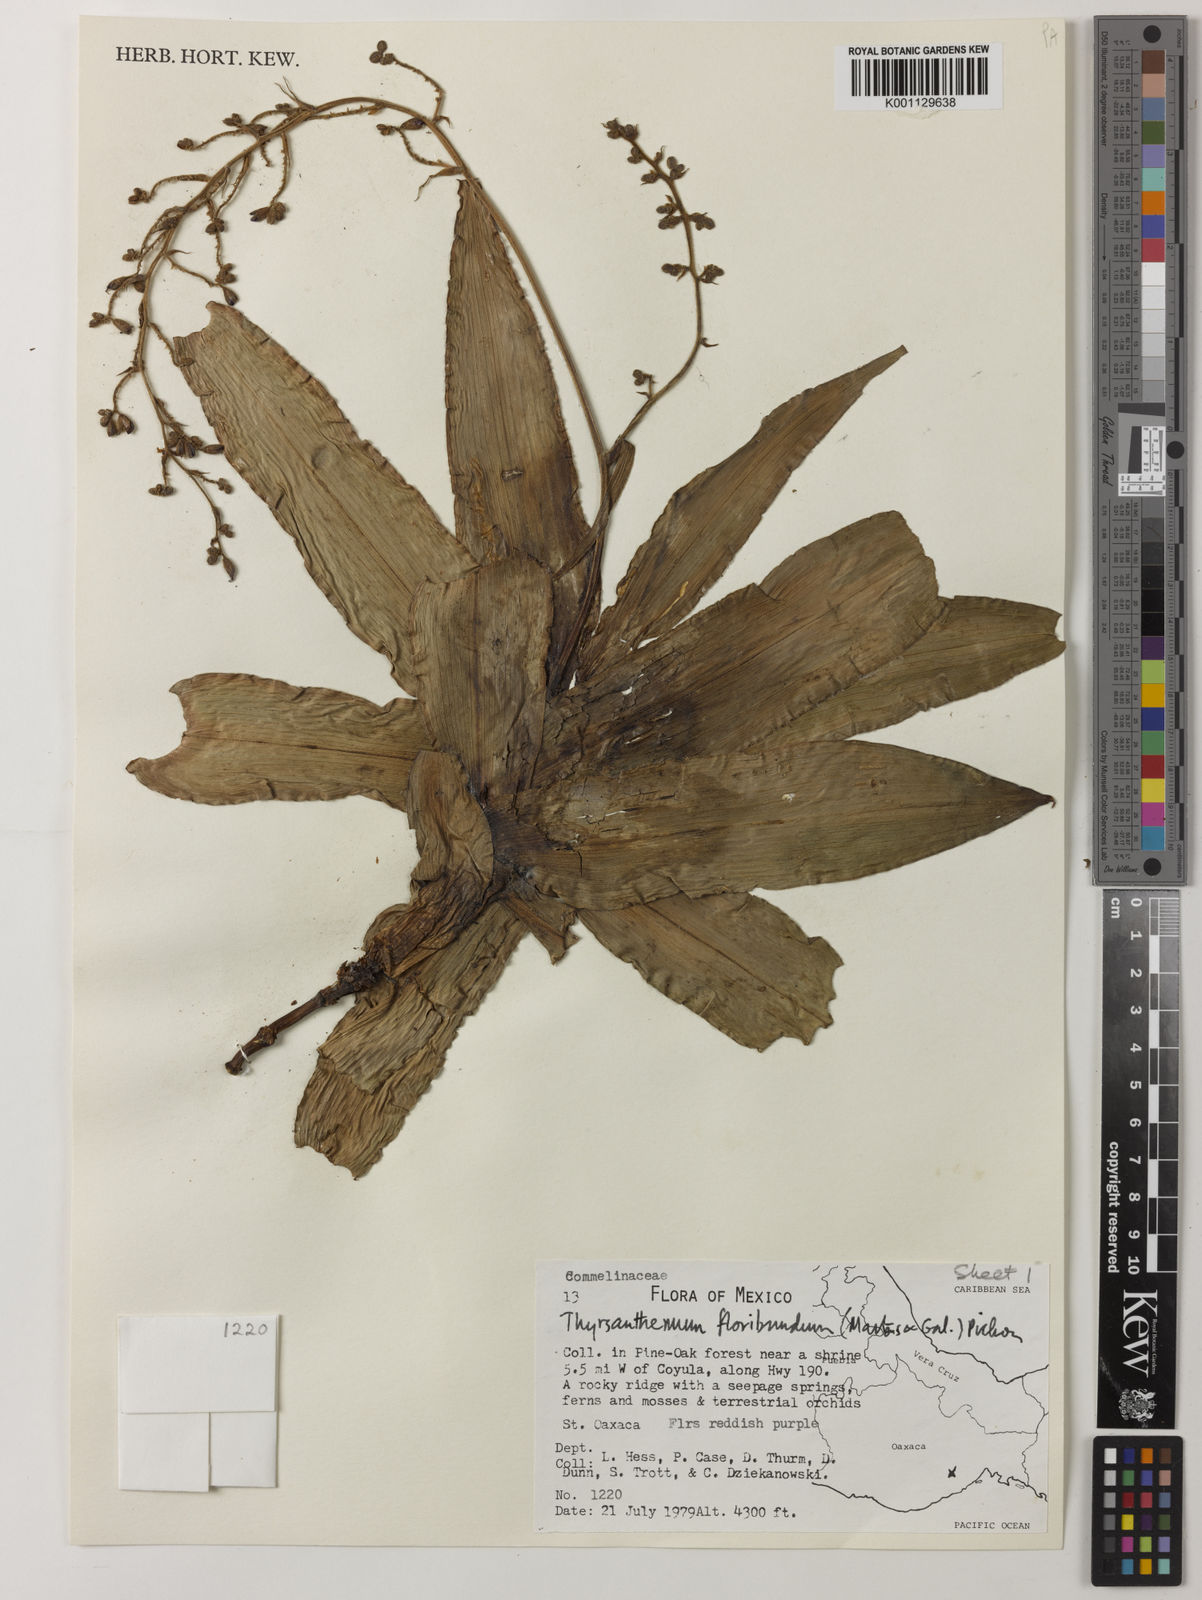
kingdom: Plantae
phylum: Tracheophyta
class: Liliopsida
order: Commelinales
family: Commelinaceae
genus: Thyrsanthemum
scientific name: Thyrsanthemum floribundum
